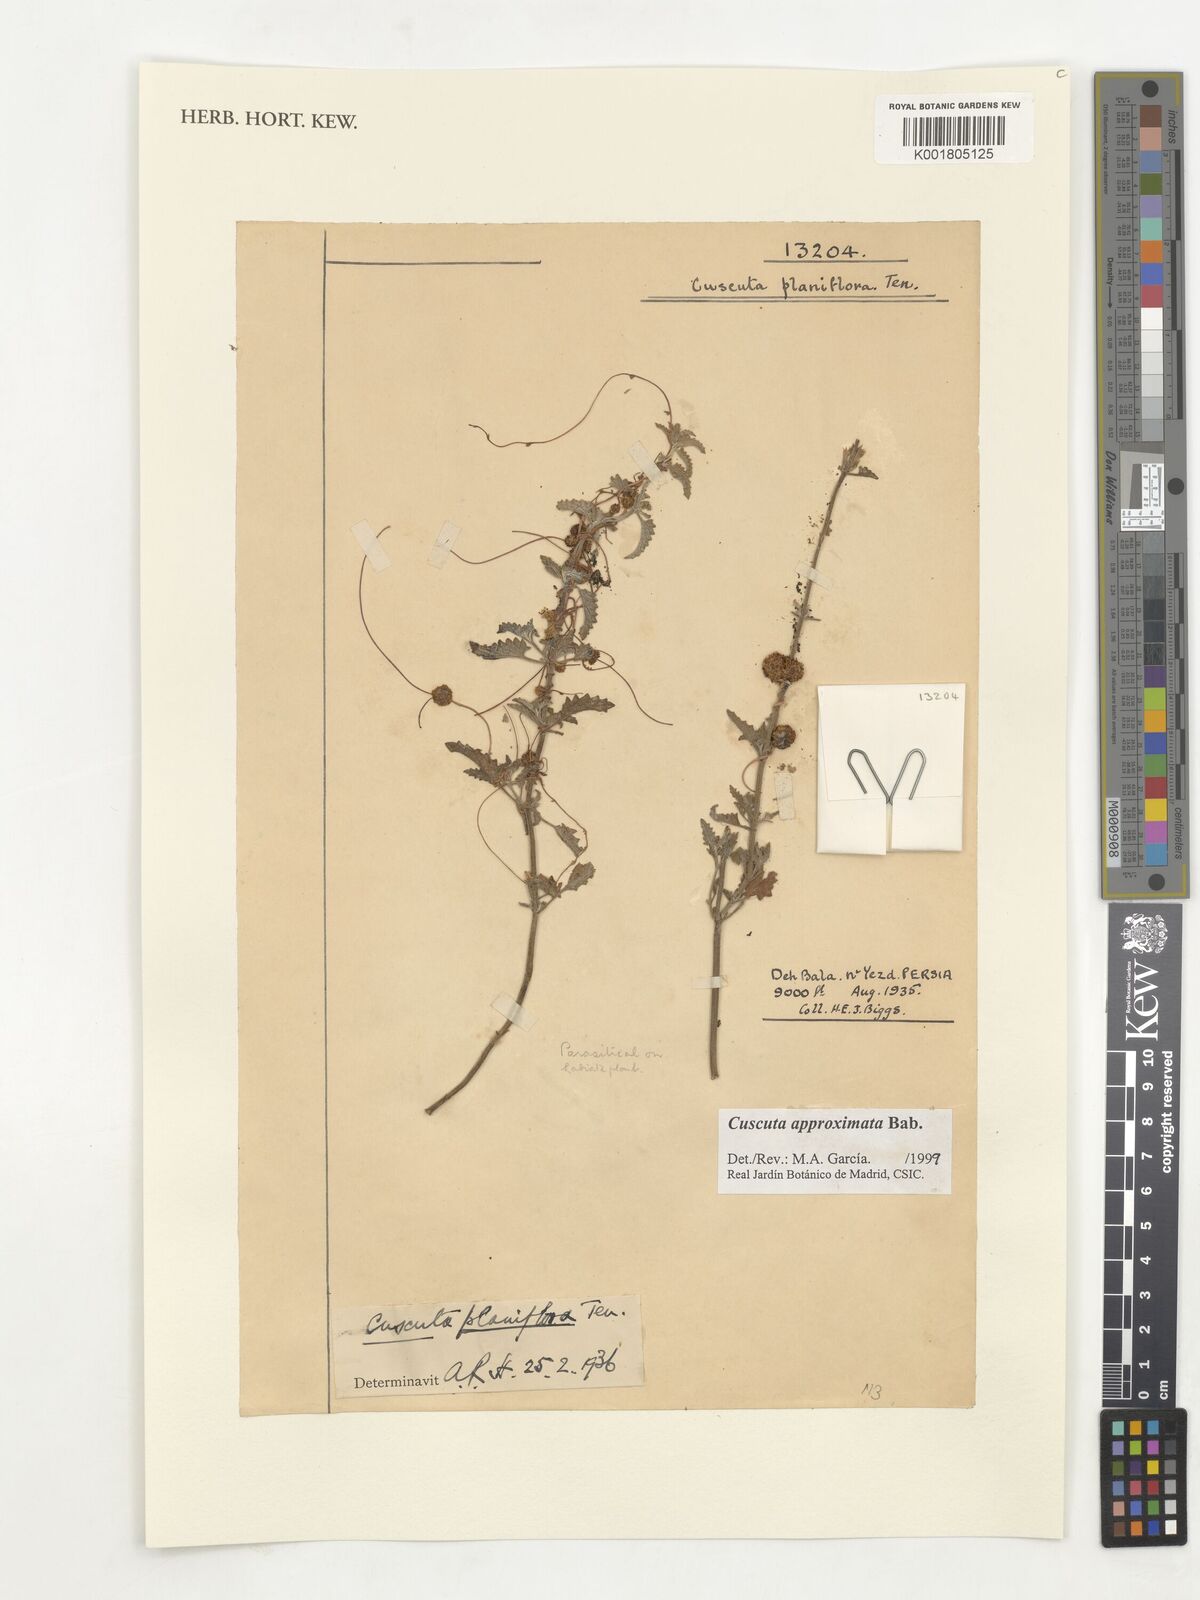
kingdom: Plantae
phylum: Tracheophyta
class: Magnoliopsida
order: Solanales
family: Convolvulaceae
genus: Cuscuta
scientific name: Cuscuta planiflora
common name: Small-seed alfalfa dodder
